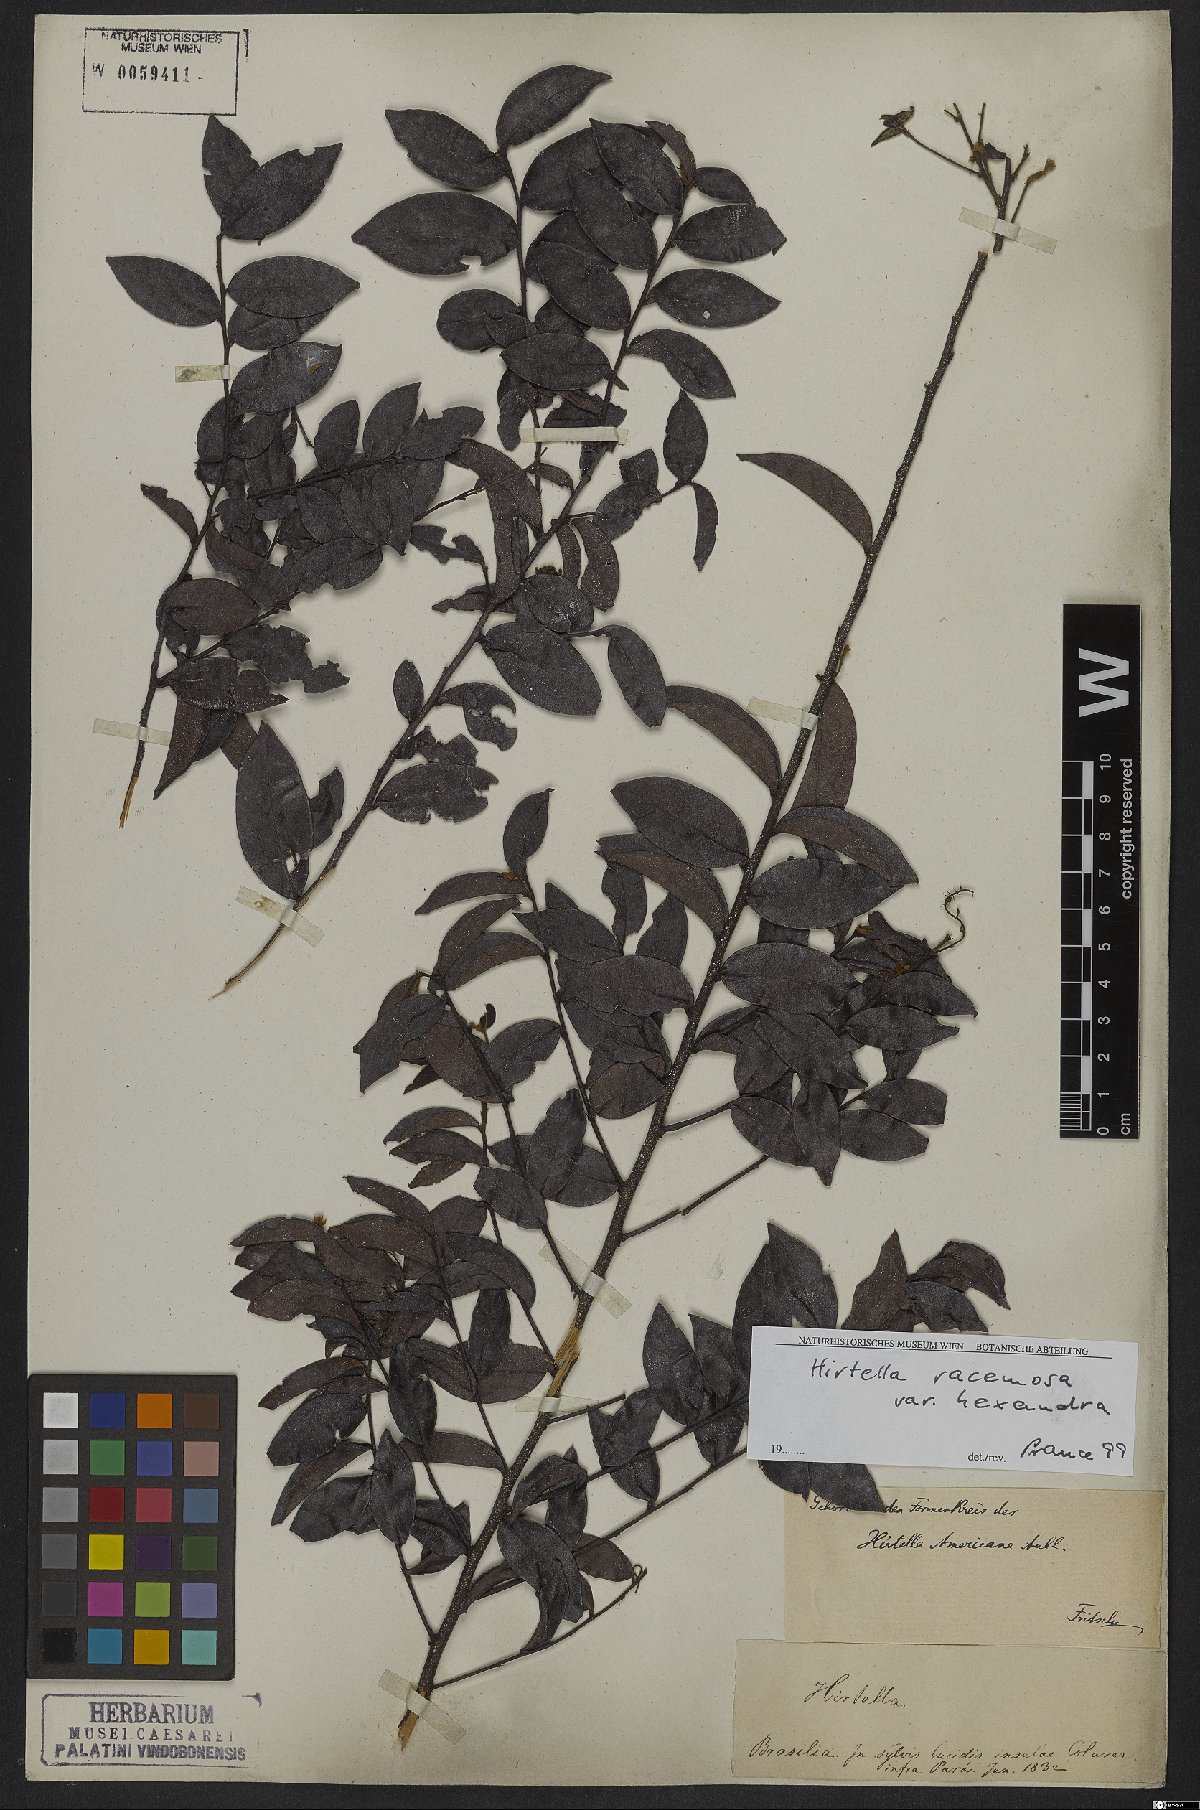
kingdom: Plantae
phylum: Tracheophyta
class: Magnoliopsida
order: Malpighiales
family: Chrysobalanaceae
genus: Hirtella
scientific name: Hirtella racemosa
